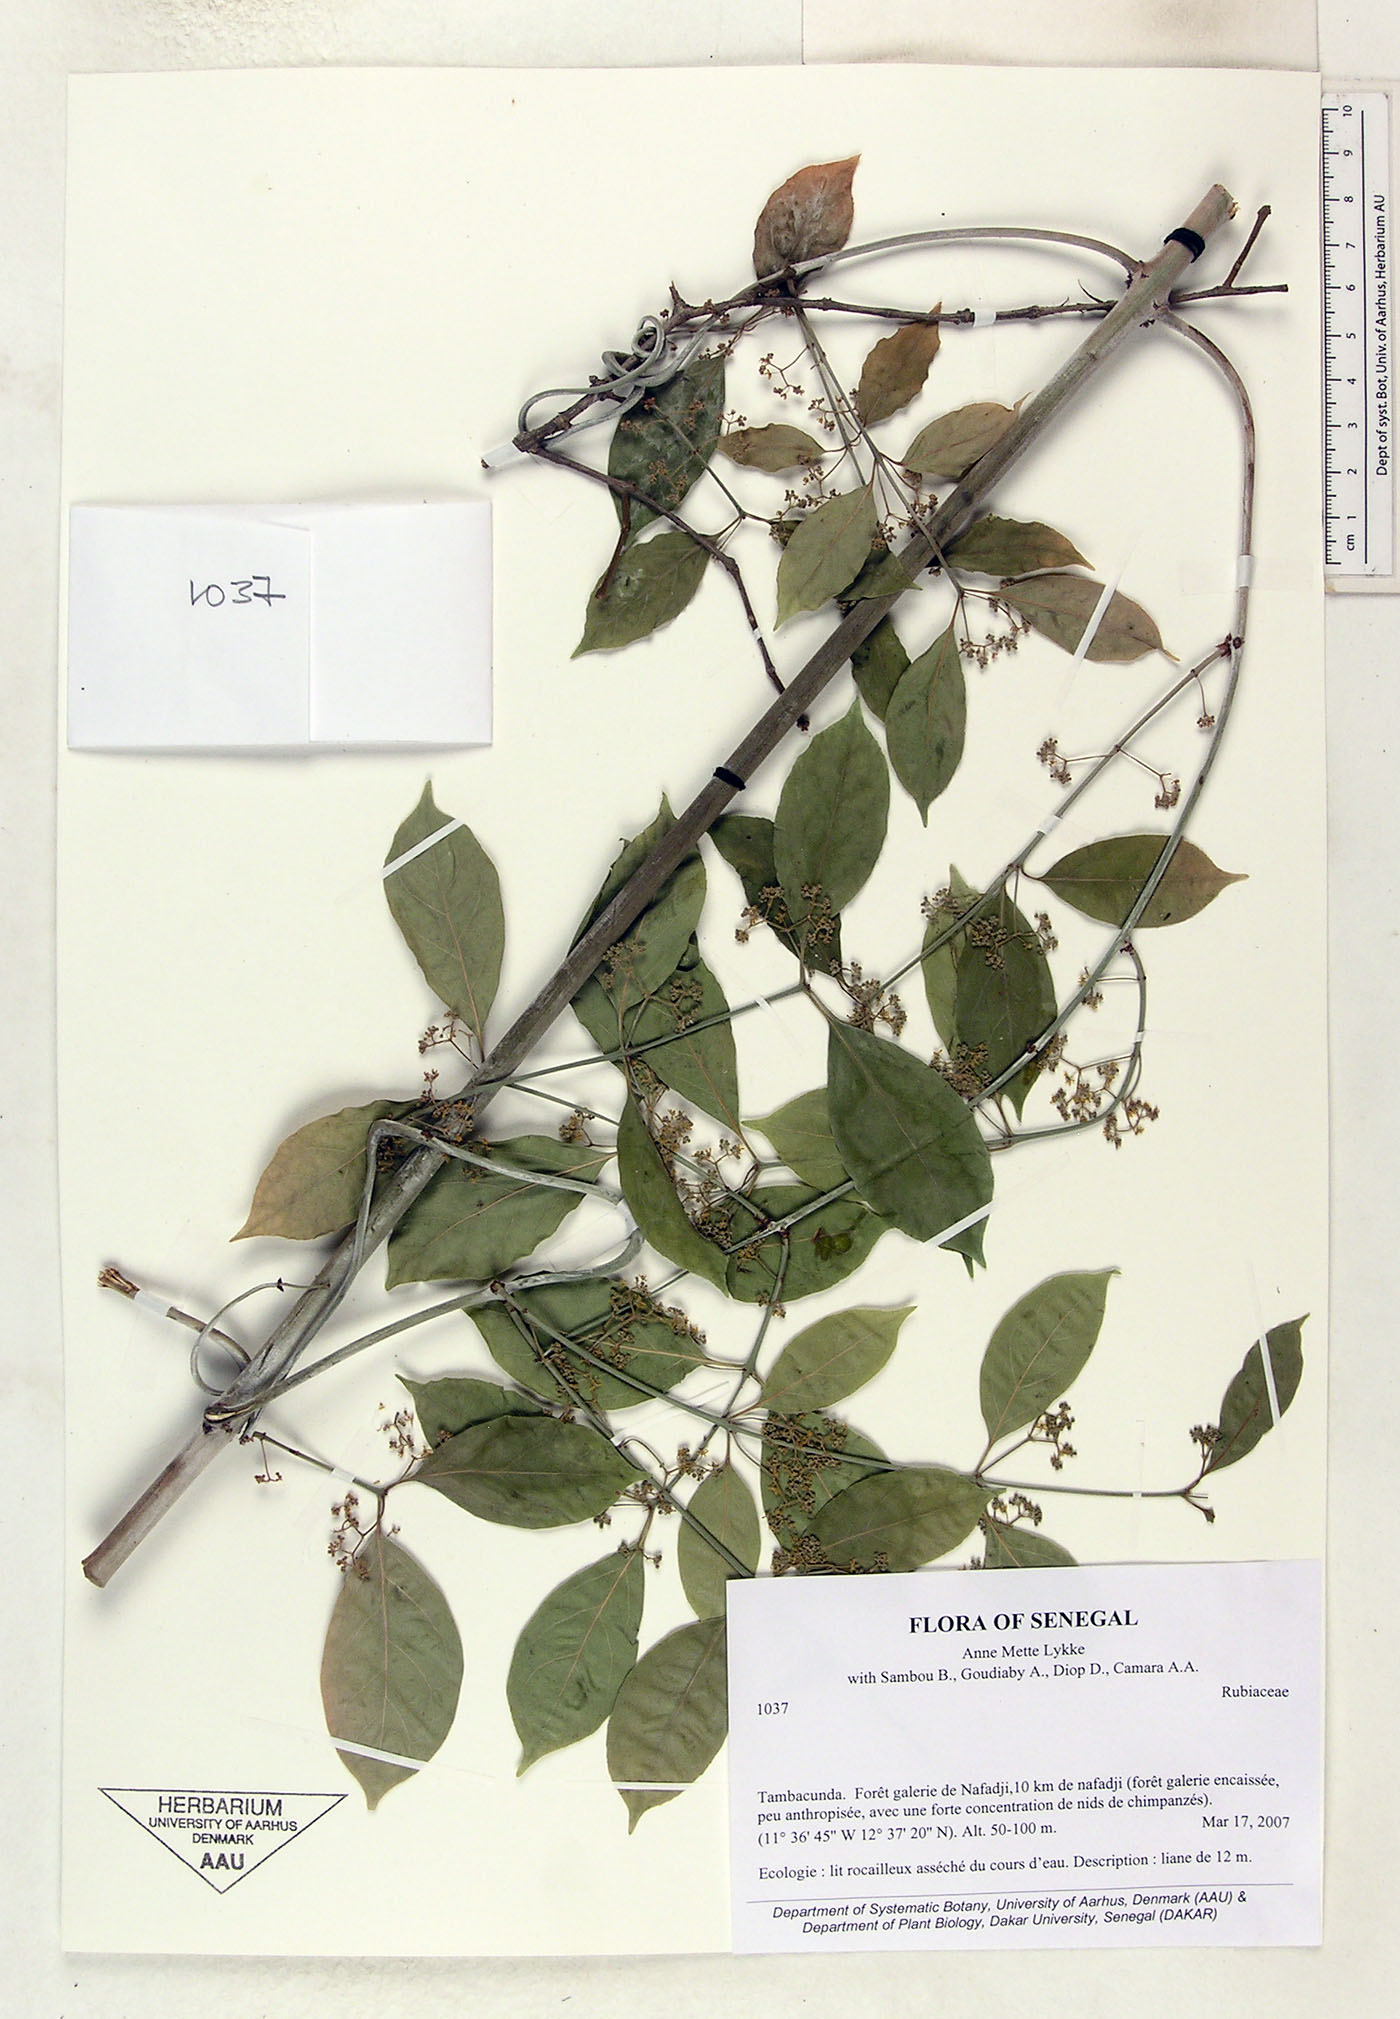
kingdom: Plantae
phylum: Tracheophyta
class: Magnoliopsida
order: Gentianales
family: Rubiaceae
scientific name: Rubiaceae
